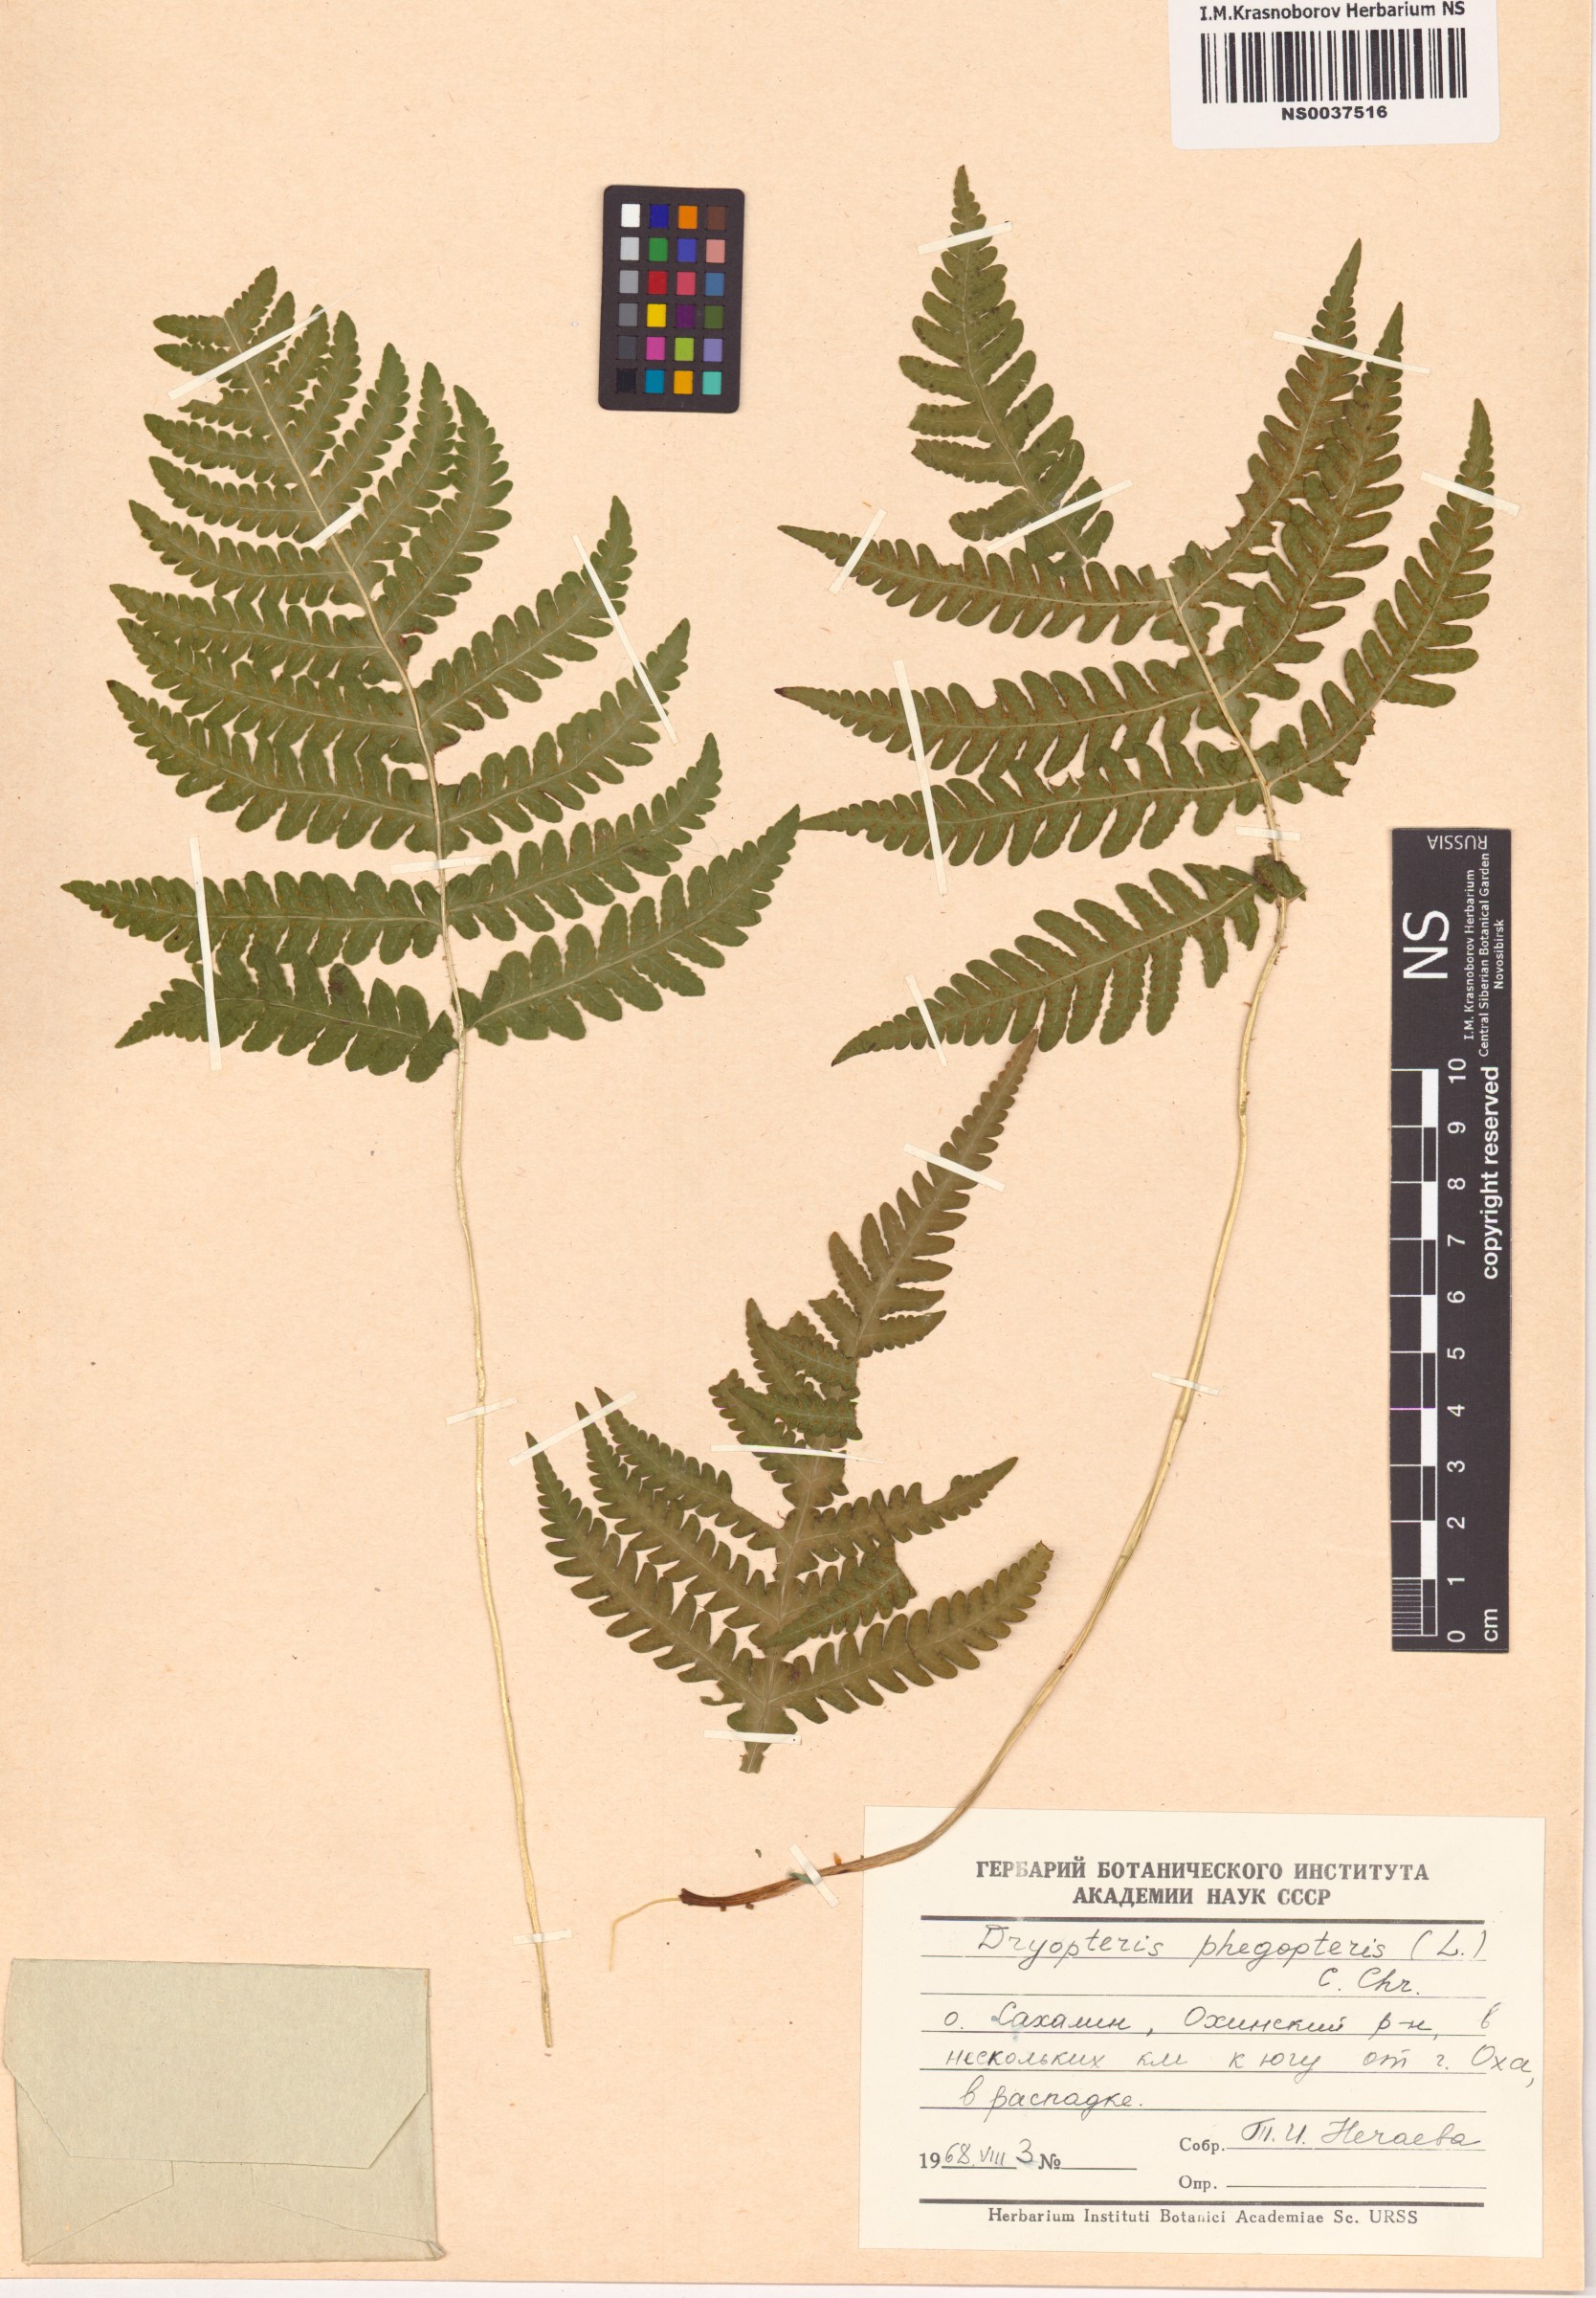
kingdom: Plantae
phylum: Tracheophyta
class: Polypodiopsida
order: Polypodiales
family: Thelypteridaceae
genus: Phegopteris
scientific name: Phegopteris connectilis
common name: Beech fern
